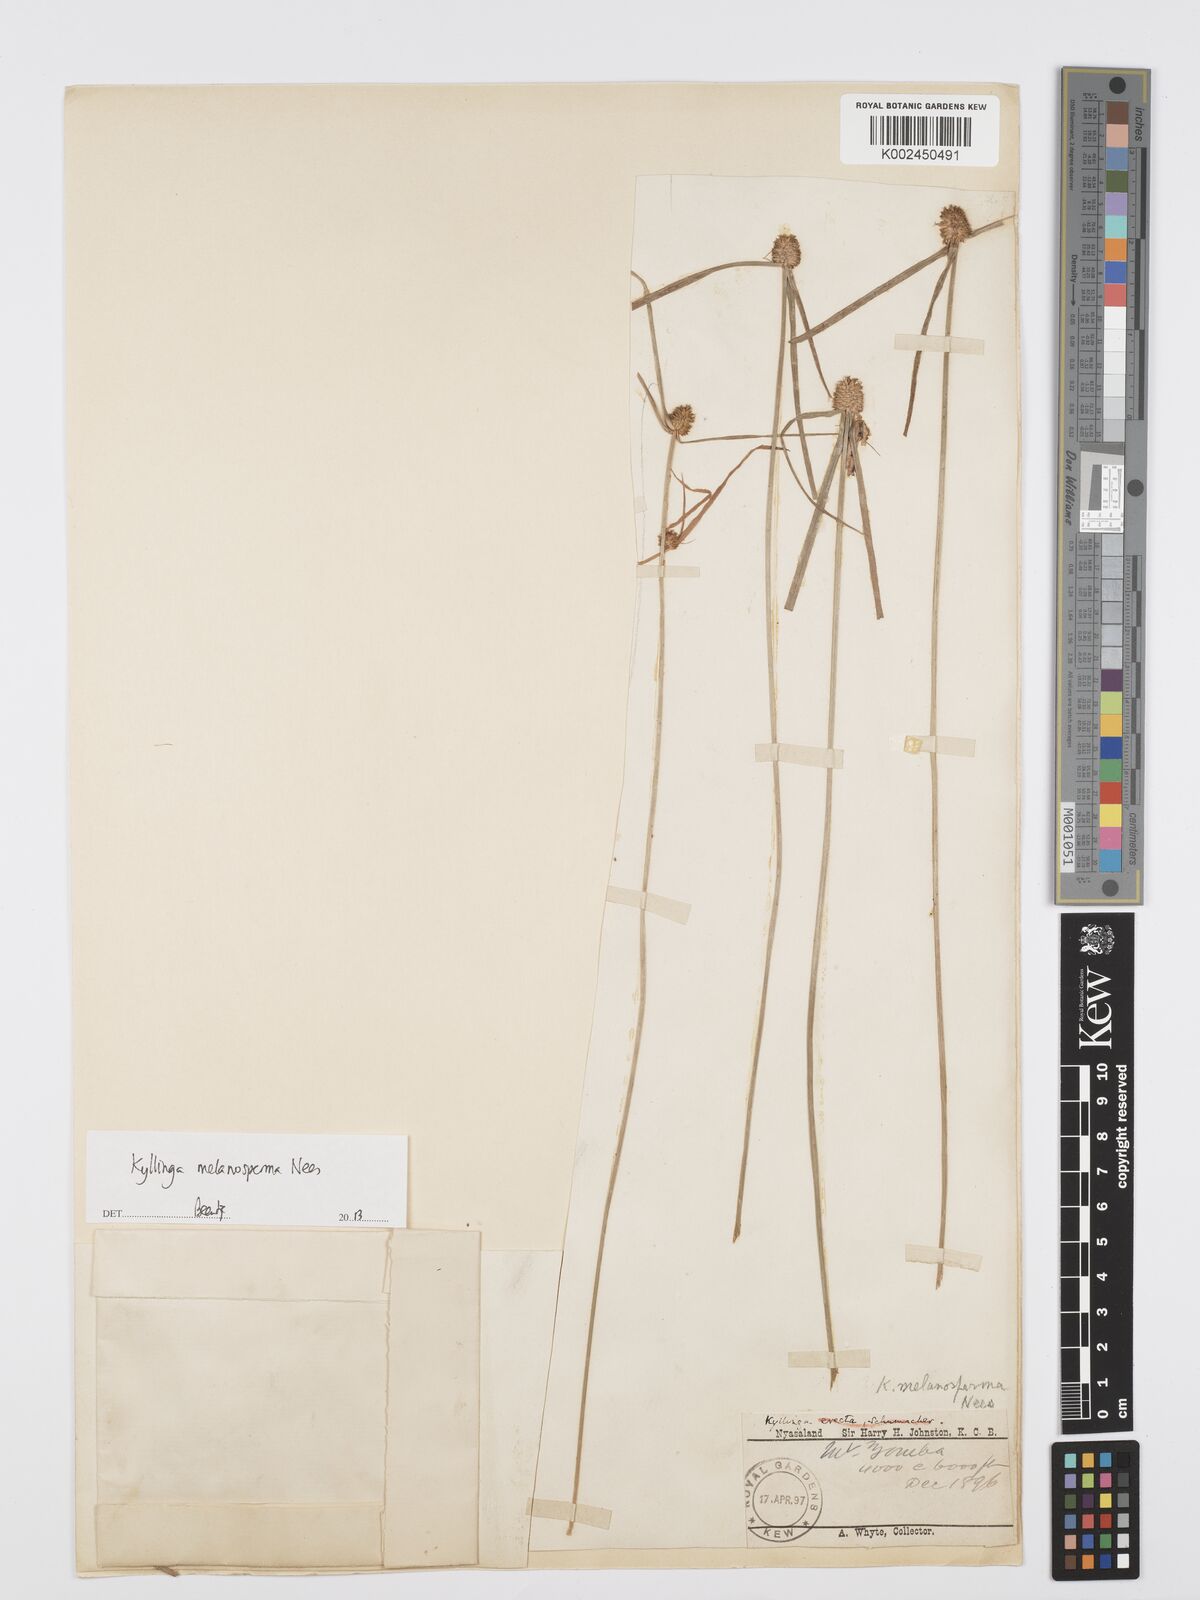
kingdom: Plantae
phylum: Tracheophyta
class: Liliopsida
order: Poales
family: Cyperaceae
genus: Cyperus
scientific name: Cyperus melanospermus
